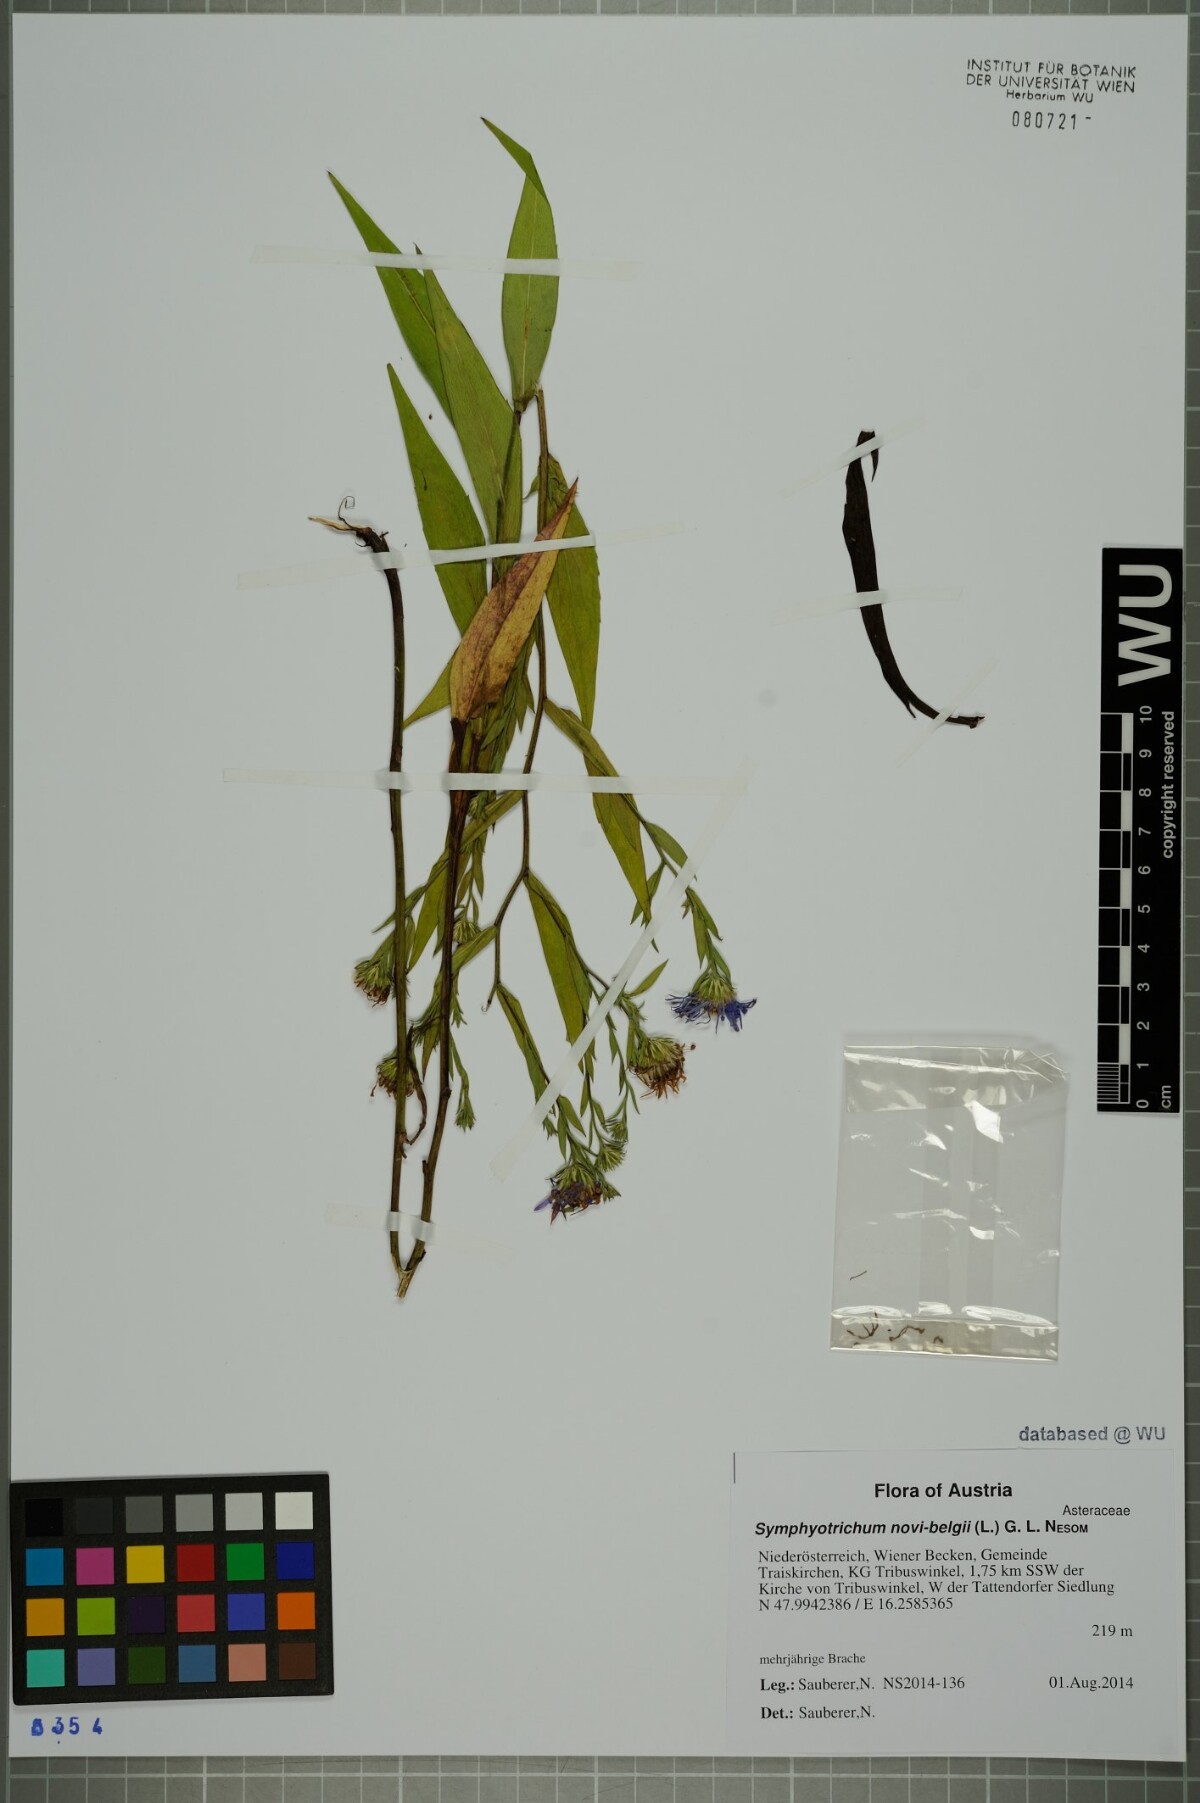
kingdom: Plantae
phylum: Tracheophyta
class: Magnoliopsida
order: Asterales
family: Asteraceae
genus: Symphyotrichum
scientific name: Symphyotrichum novi-belgii
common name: Michaelmas daisy
